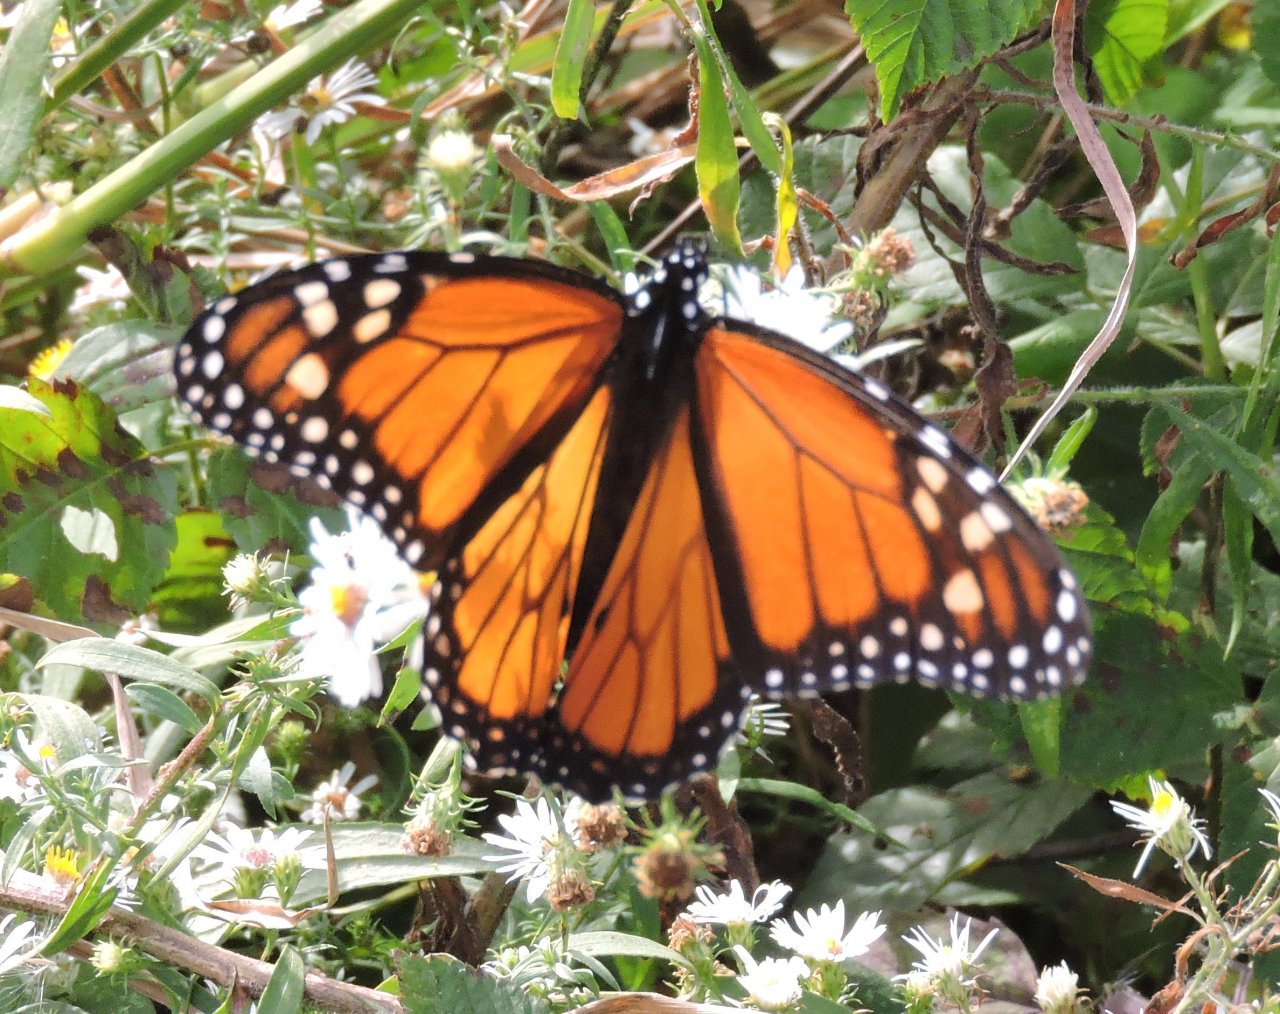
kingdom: Animalia
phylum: Arthropoda
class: Insecta
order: Lepidoptera
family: Nymphalidae
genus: Danaus
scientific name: Danaus plexippus
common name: Monarch
